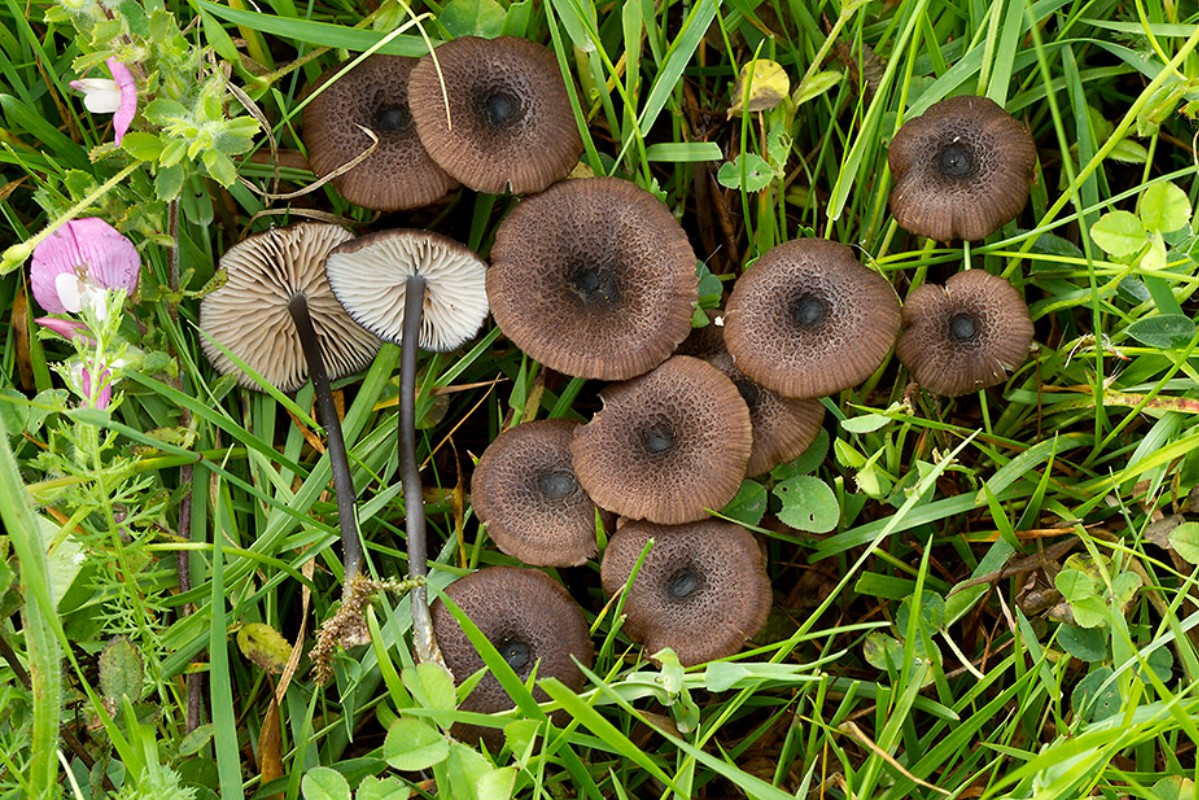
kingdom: Fungi
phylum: Basidiomycota
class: Agaricomycetes
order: Agaricales
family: Entolomataceae
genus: Entoloma
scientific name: Entoloma asprellum
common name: ru rødblad
